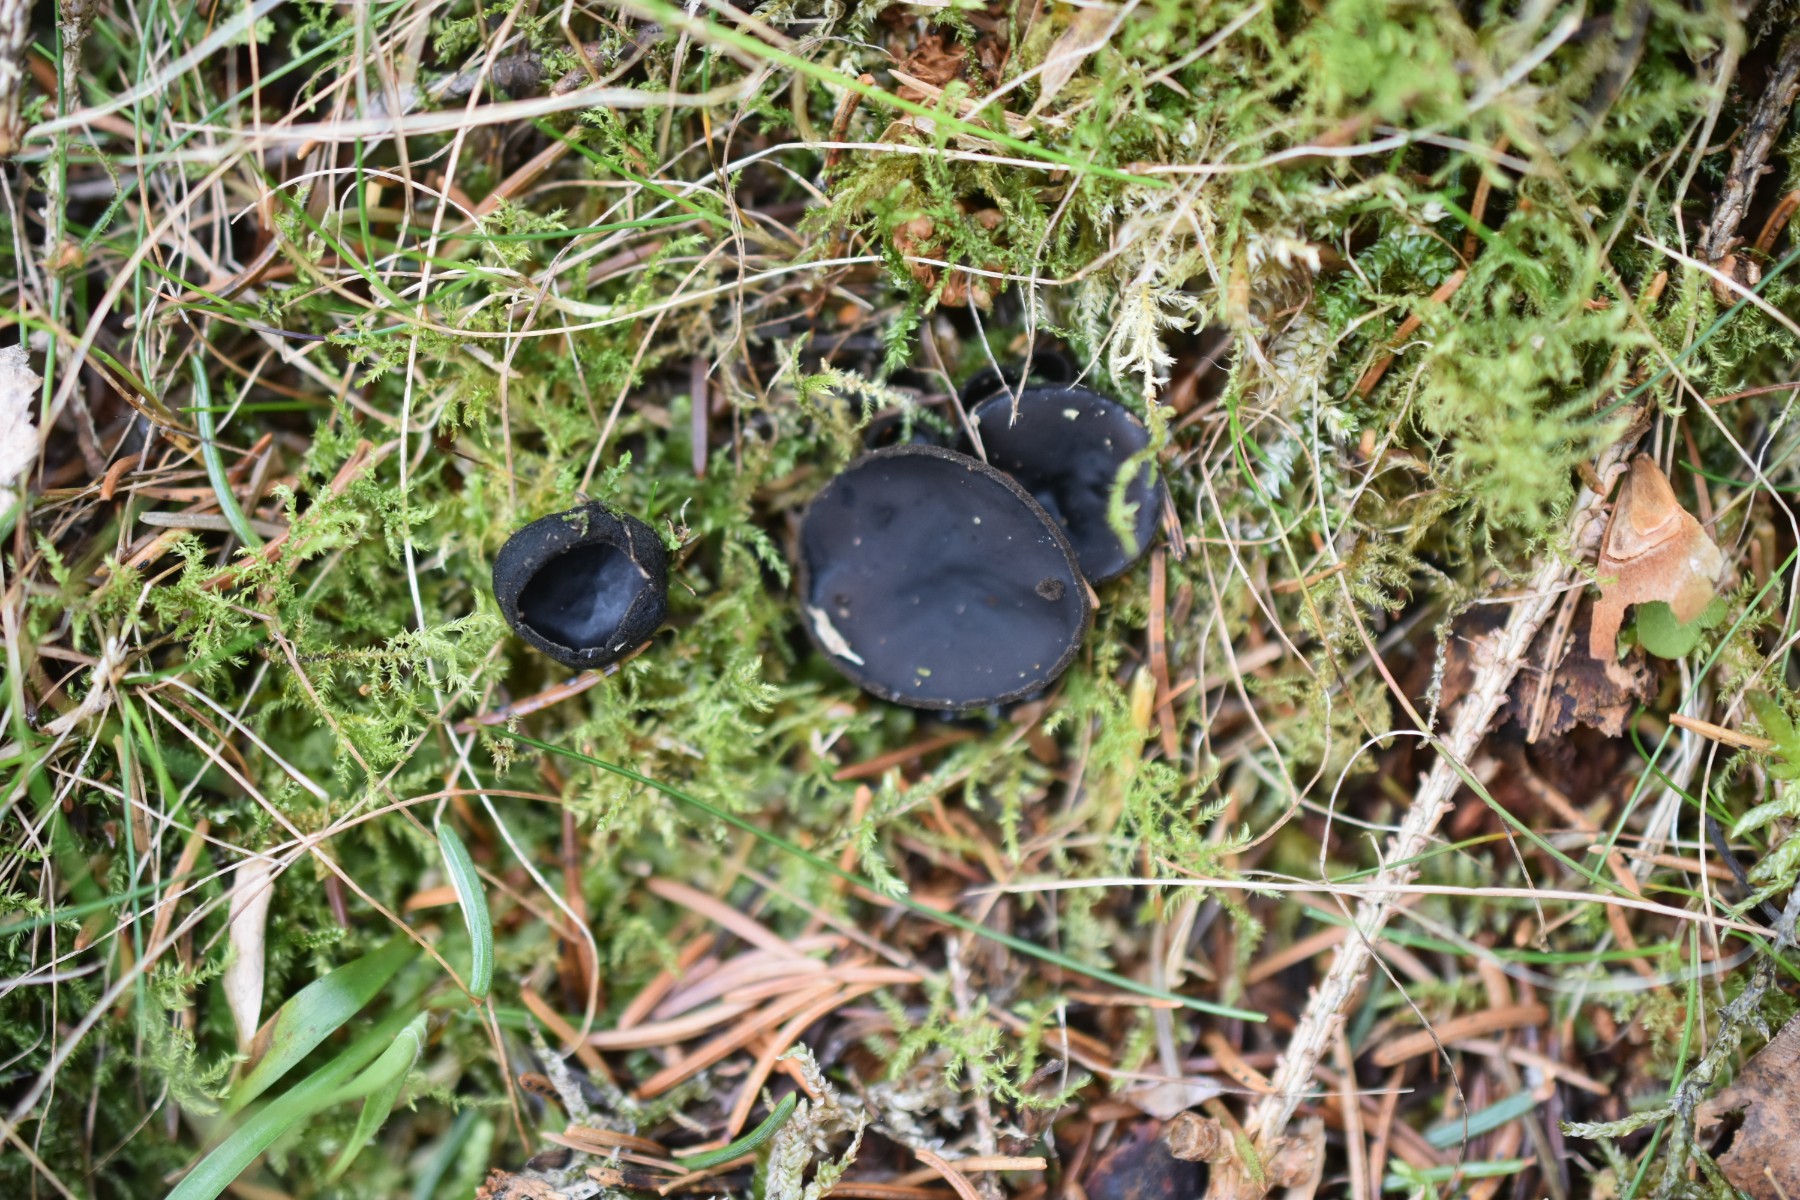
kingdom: Fungi
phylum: Ascomycota
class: Pezizomycetes
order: Pezizales
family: Sarcosomataceae
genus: Pseudoplectania
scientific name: Pseudoplectania nigrella
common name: almindelig sortbæger
